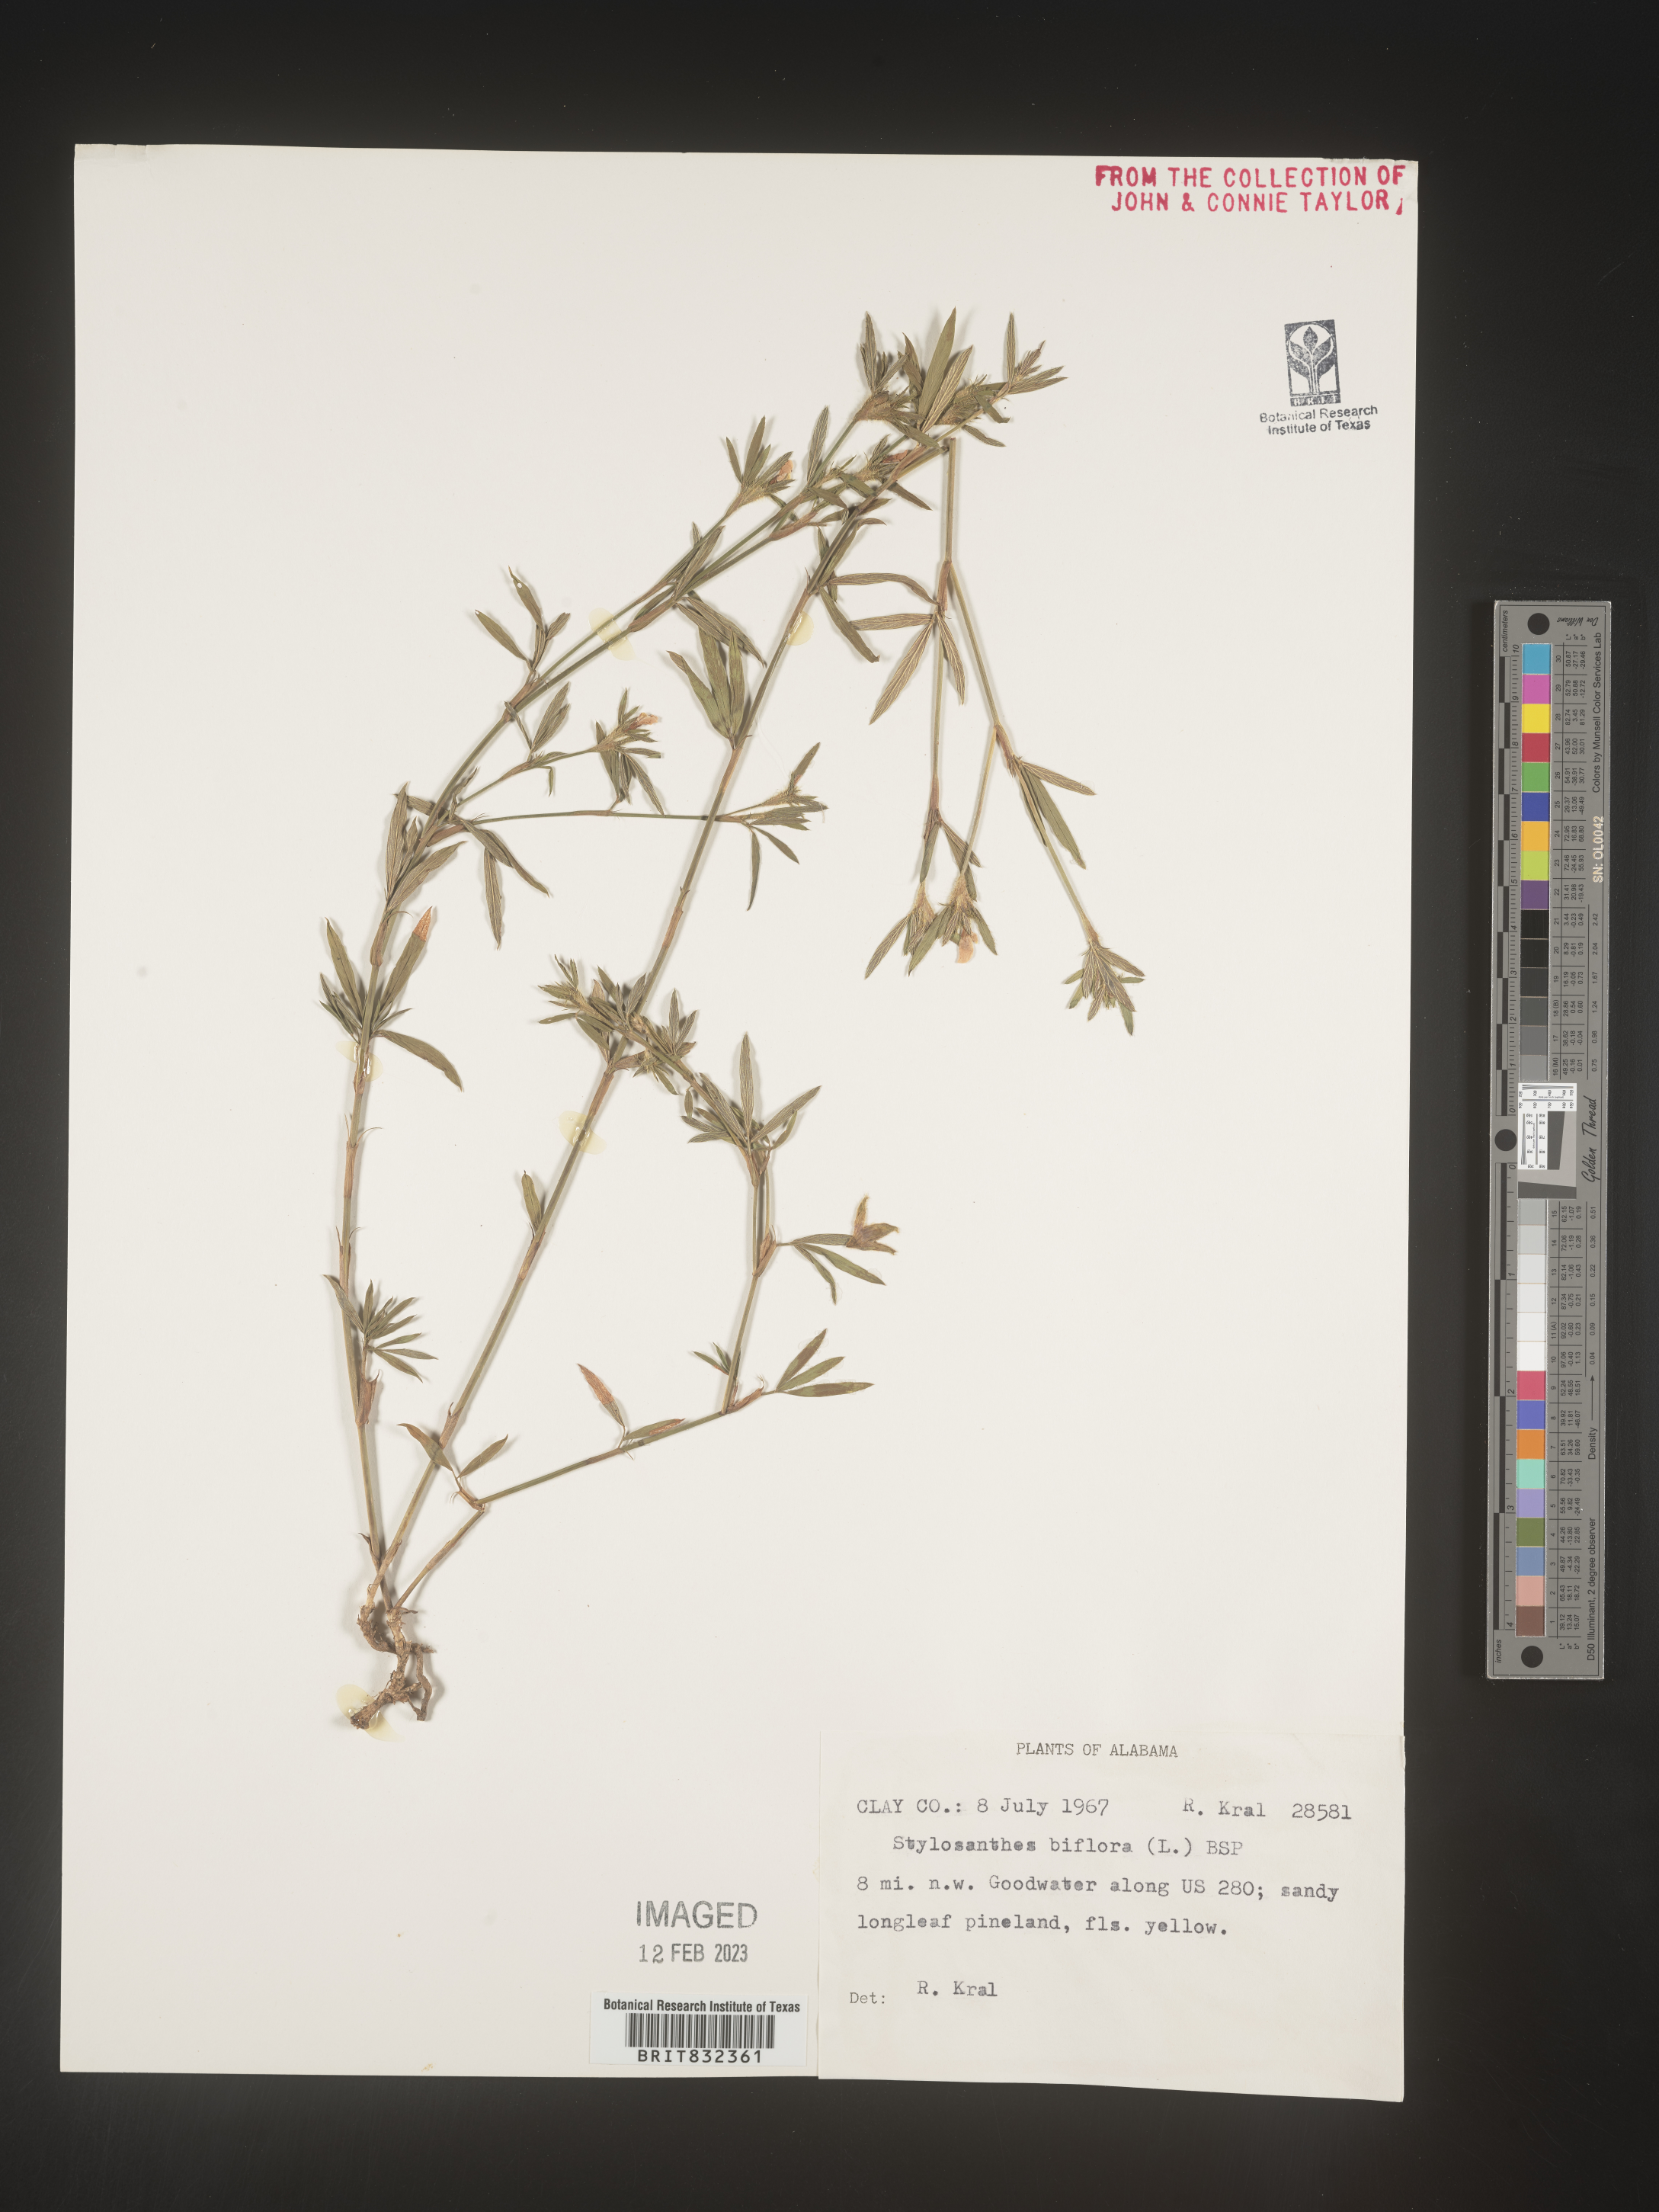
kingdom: Plantae
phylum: Tracheophyta
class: Magnoliopsida
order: Fabales
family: Fabaceae
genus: Stylosanthes
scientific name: Stylosanthes biflora
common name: Two-flower pencil-flower
